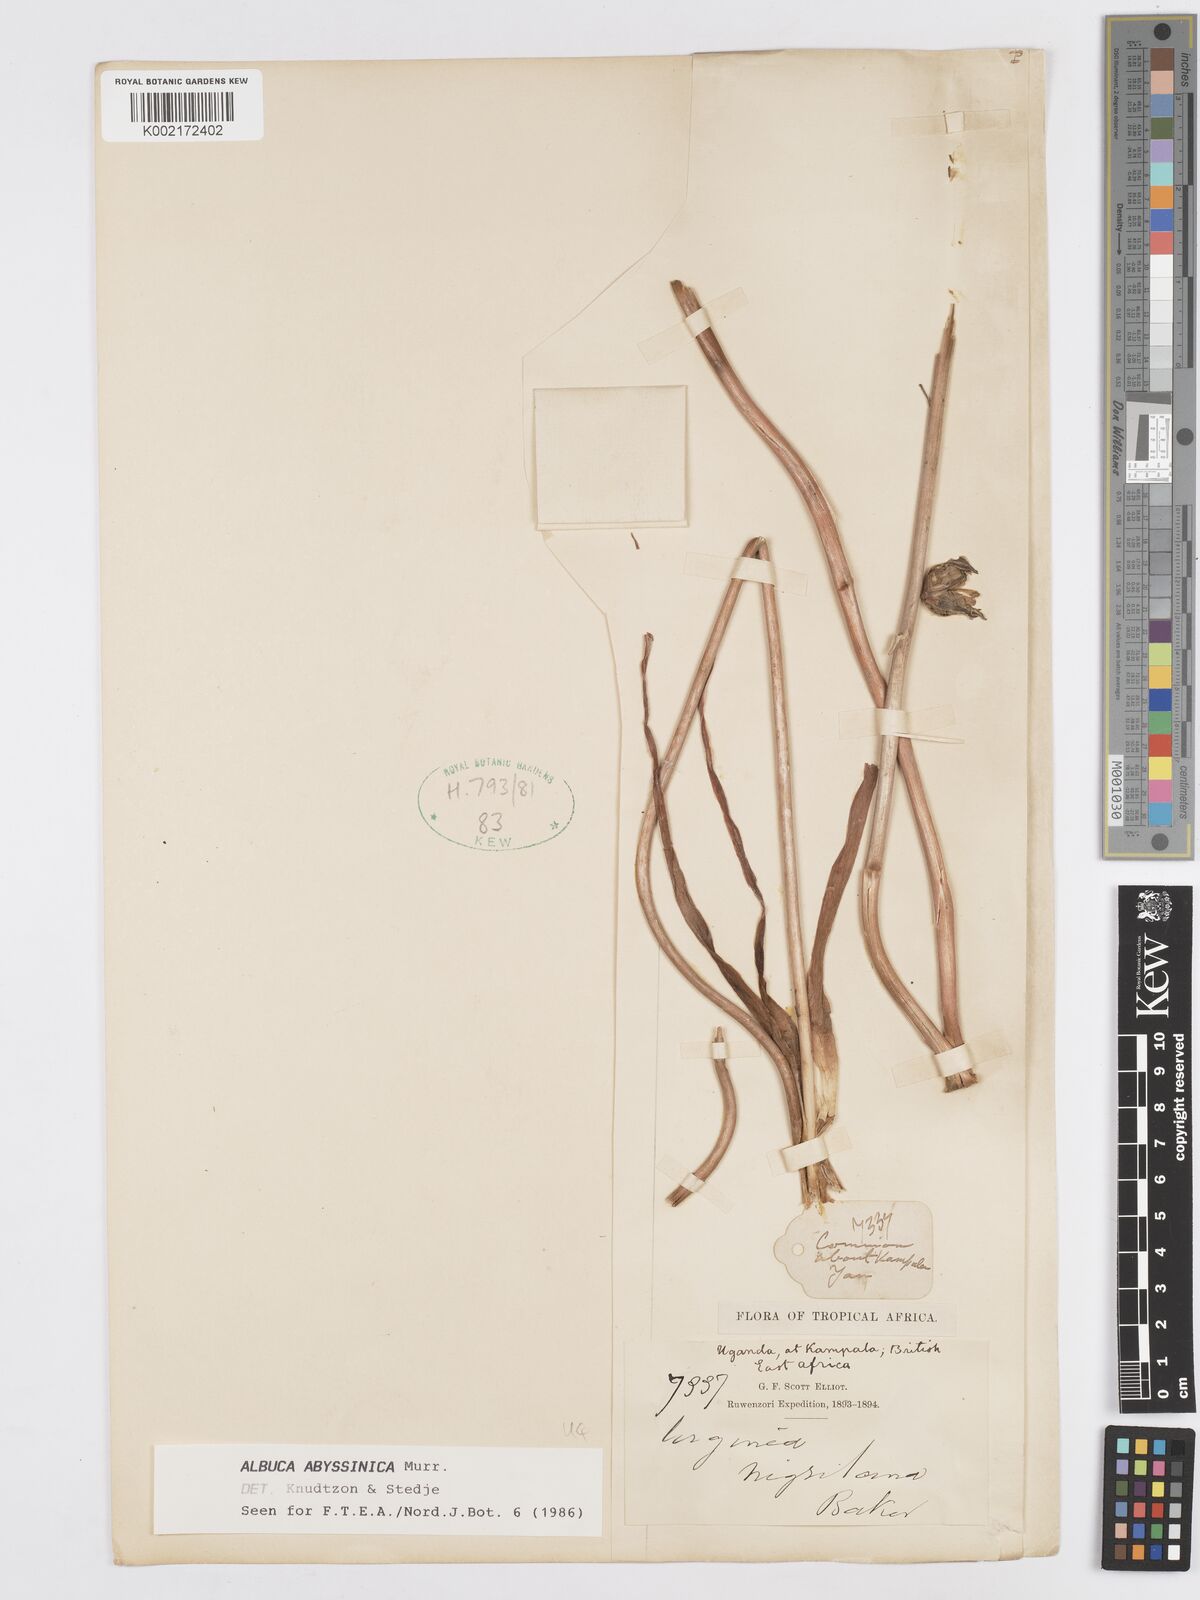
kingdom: Plantae
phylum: Tracheophyta
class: Liliopsida
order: Asparagales
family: Asparagaceae
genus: Albuca
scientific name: Albuca abyssinica
